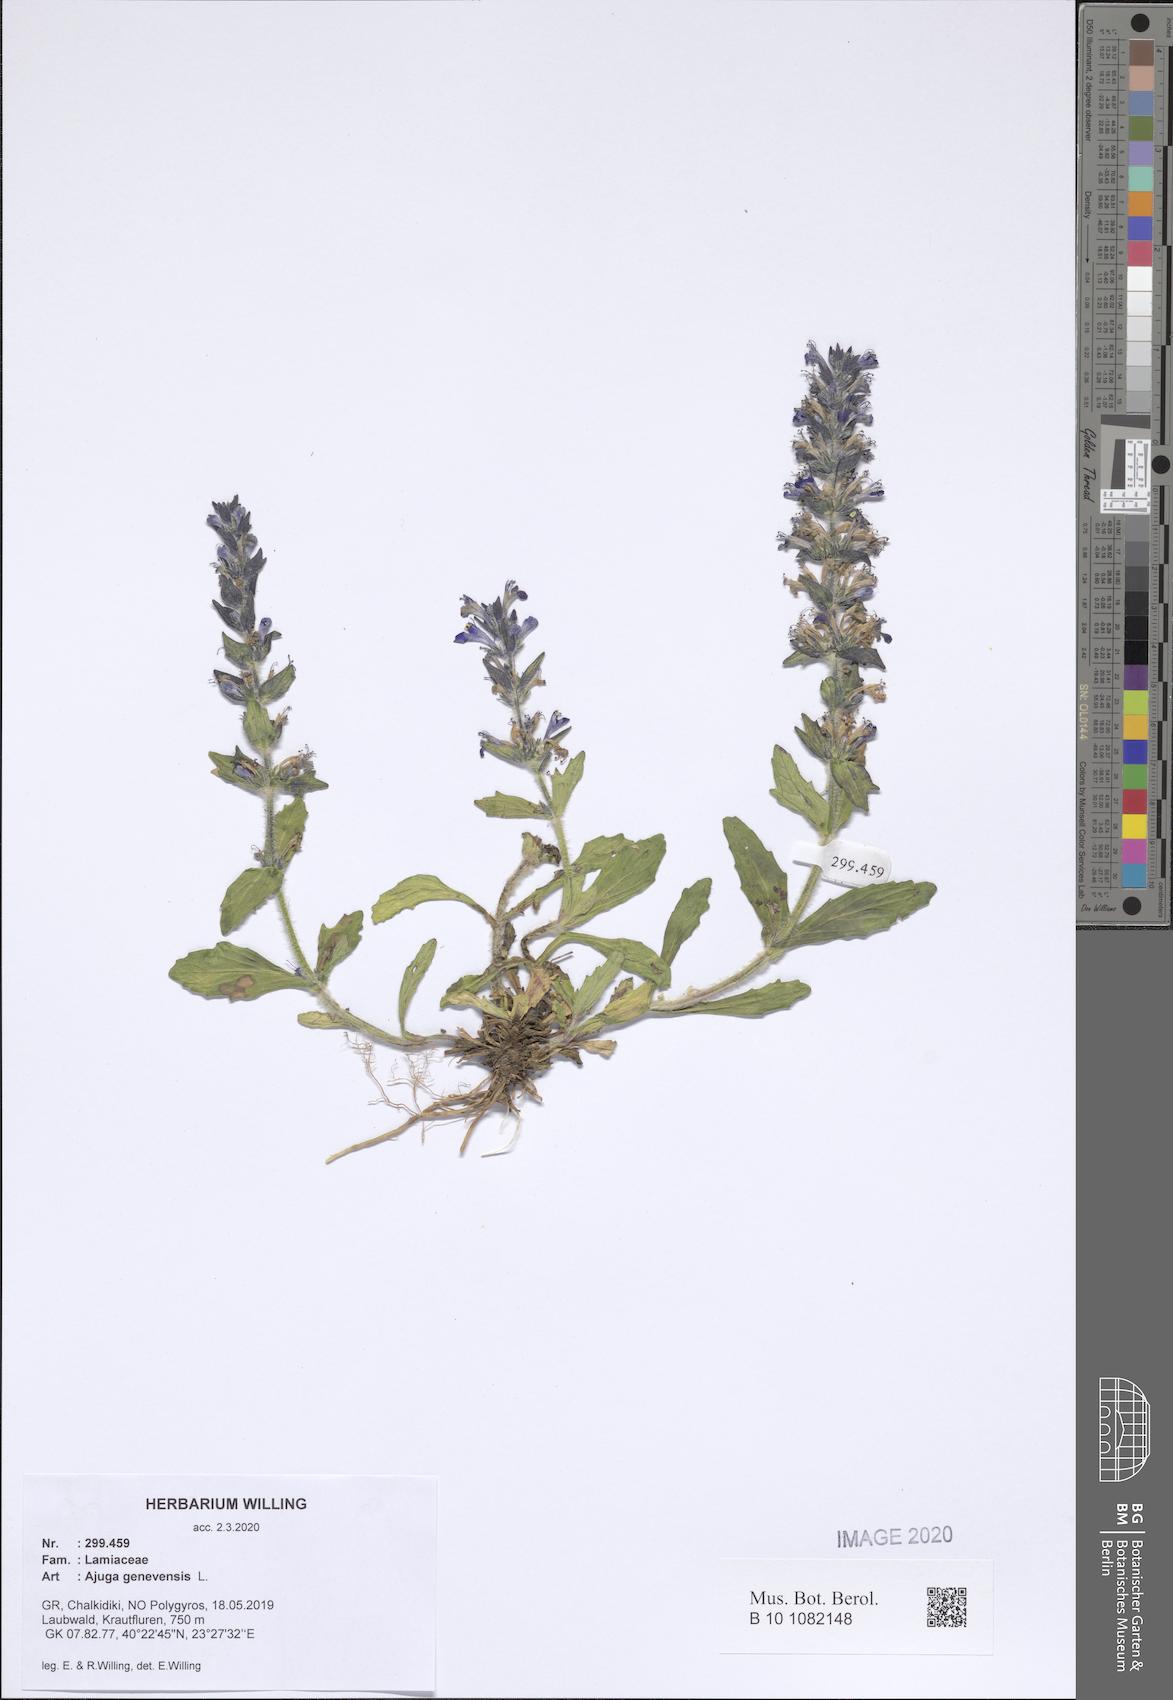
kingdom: Plantae
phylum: Tracheophyta
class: Magnoliopsida
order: Lamiales
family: Lamiaceae
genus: Ajuga
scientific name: Ajuga genevensis
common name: Blue bugle
